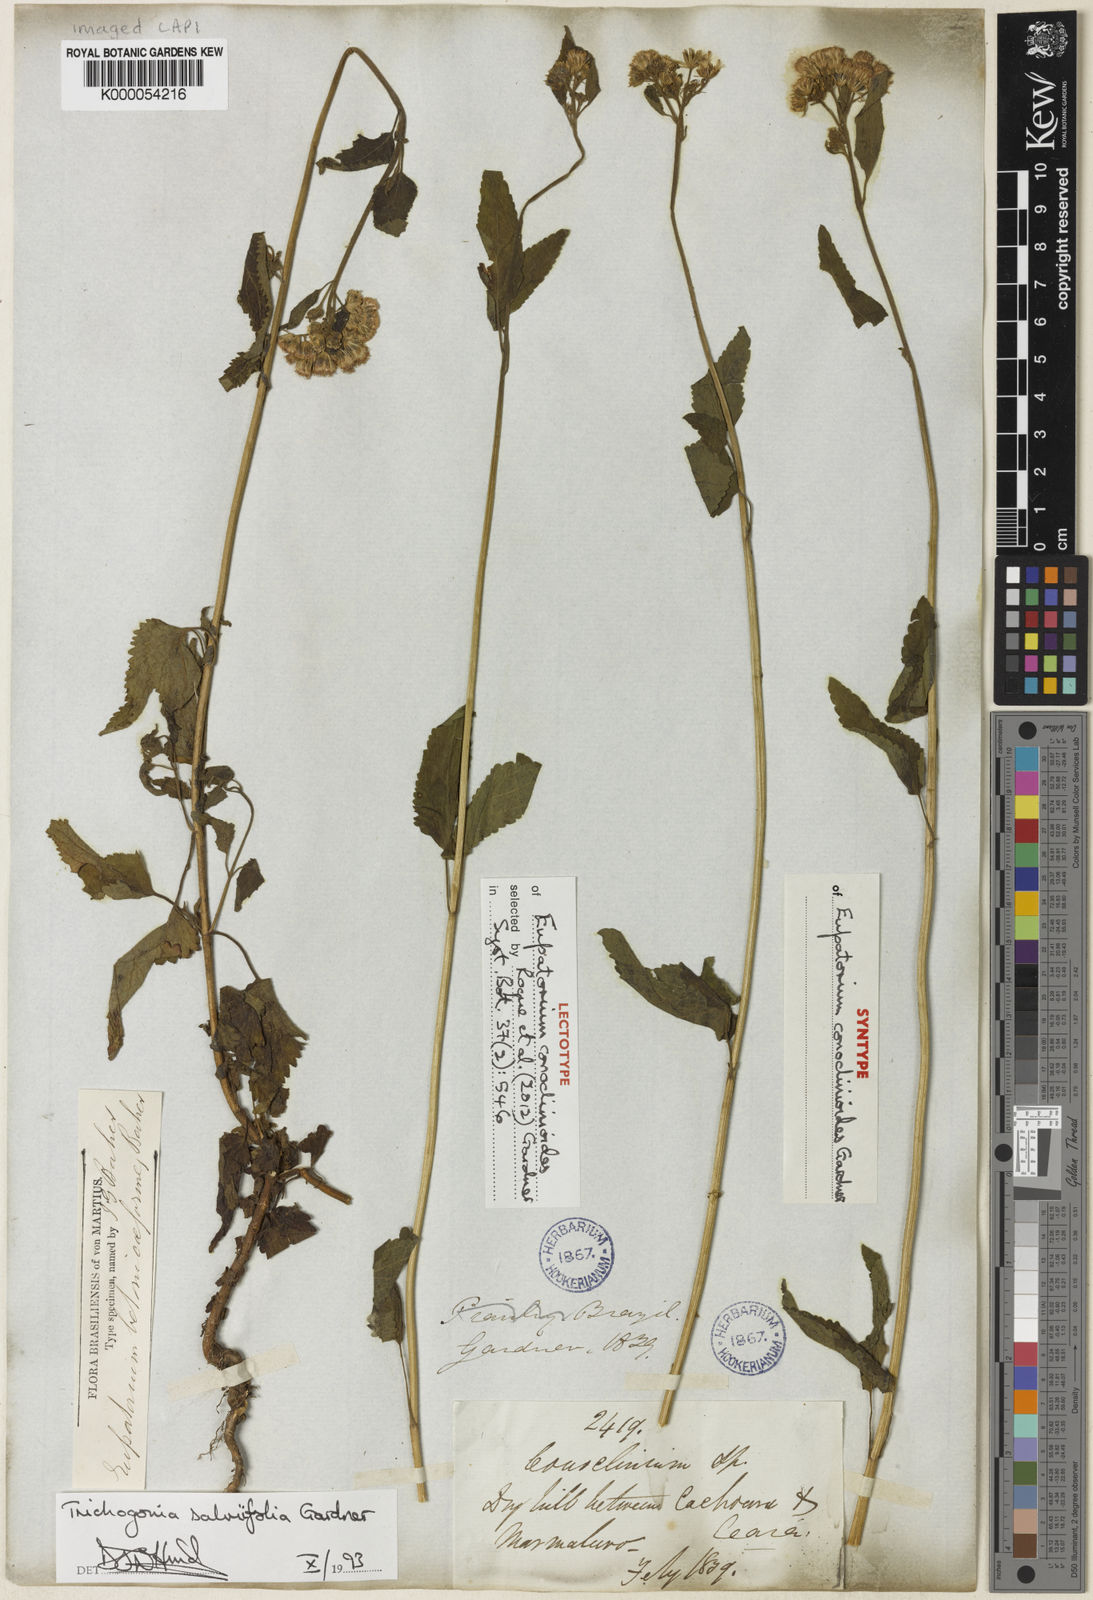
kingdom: Plantae
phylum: Tracheophyta
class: Magnoliopsida
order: Asterales
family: Asteraceae
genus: Trichogonia
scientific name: Trichogonia salviifolia
